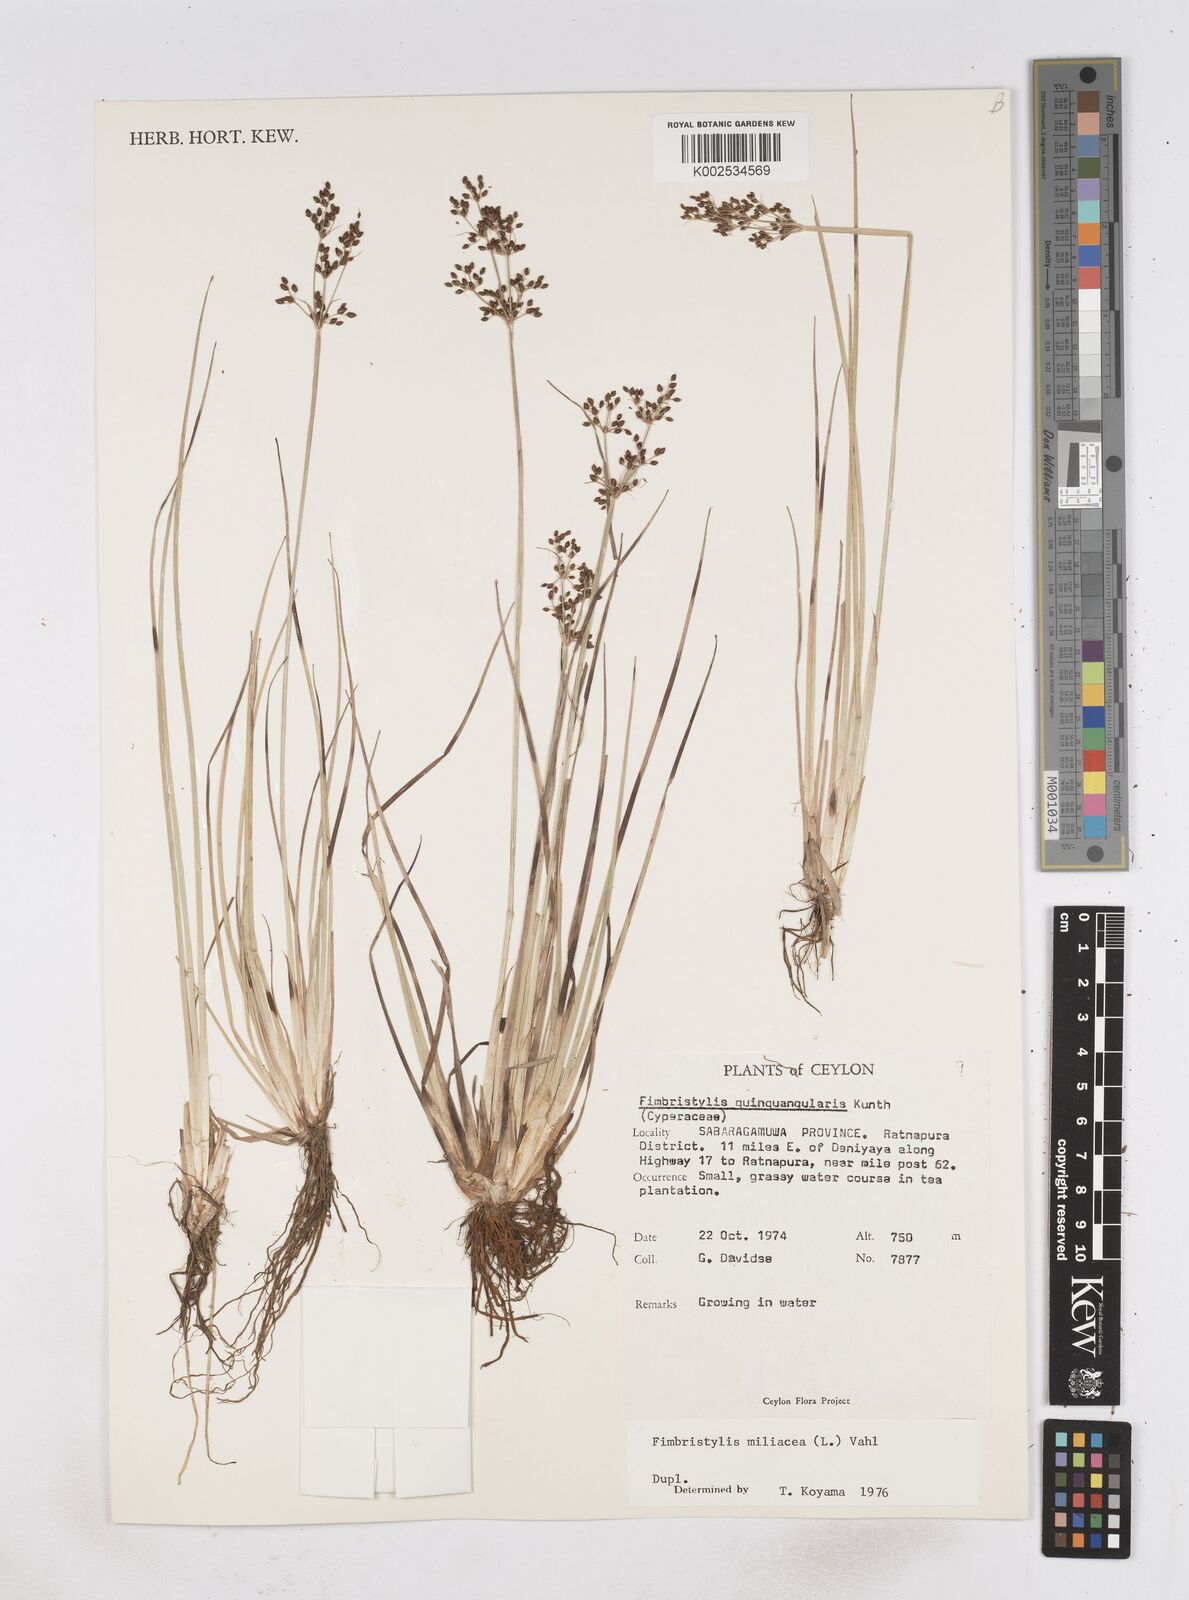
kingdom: Plantae
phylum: Tracheophyta
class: Liliopsida
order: Poales
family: Cyperaceae
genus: Fimbristylis
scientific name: Fimbristylis quinquangularis
